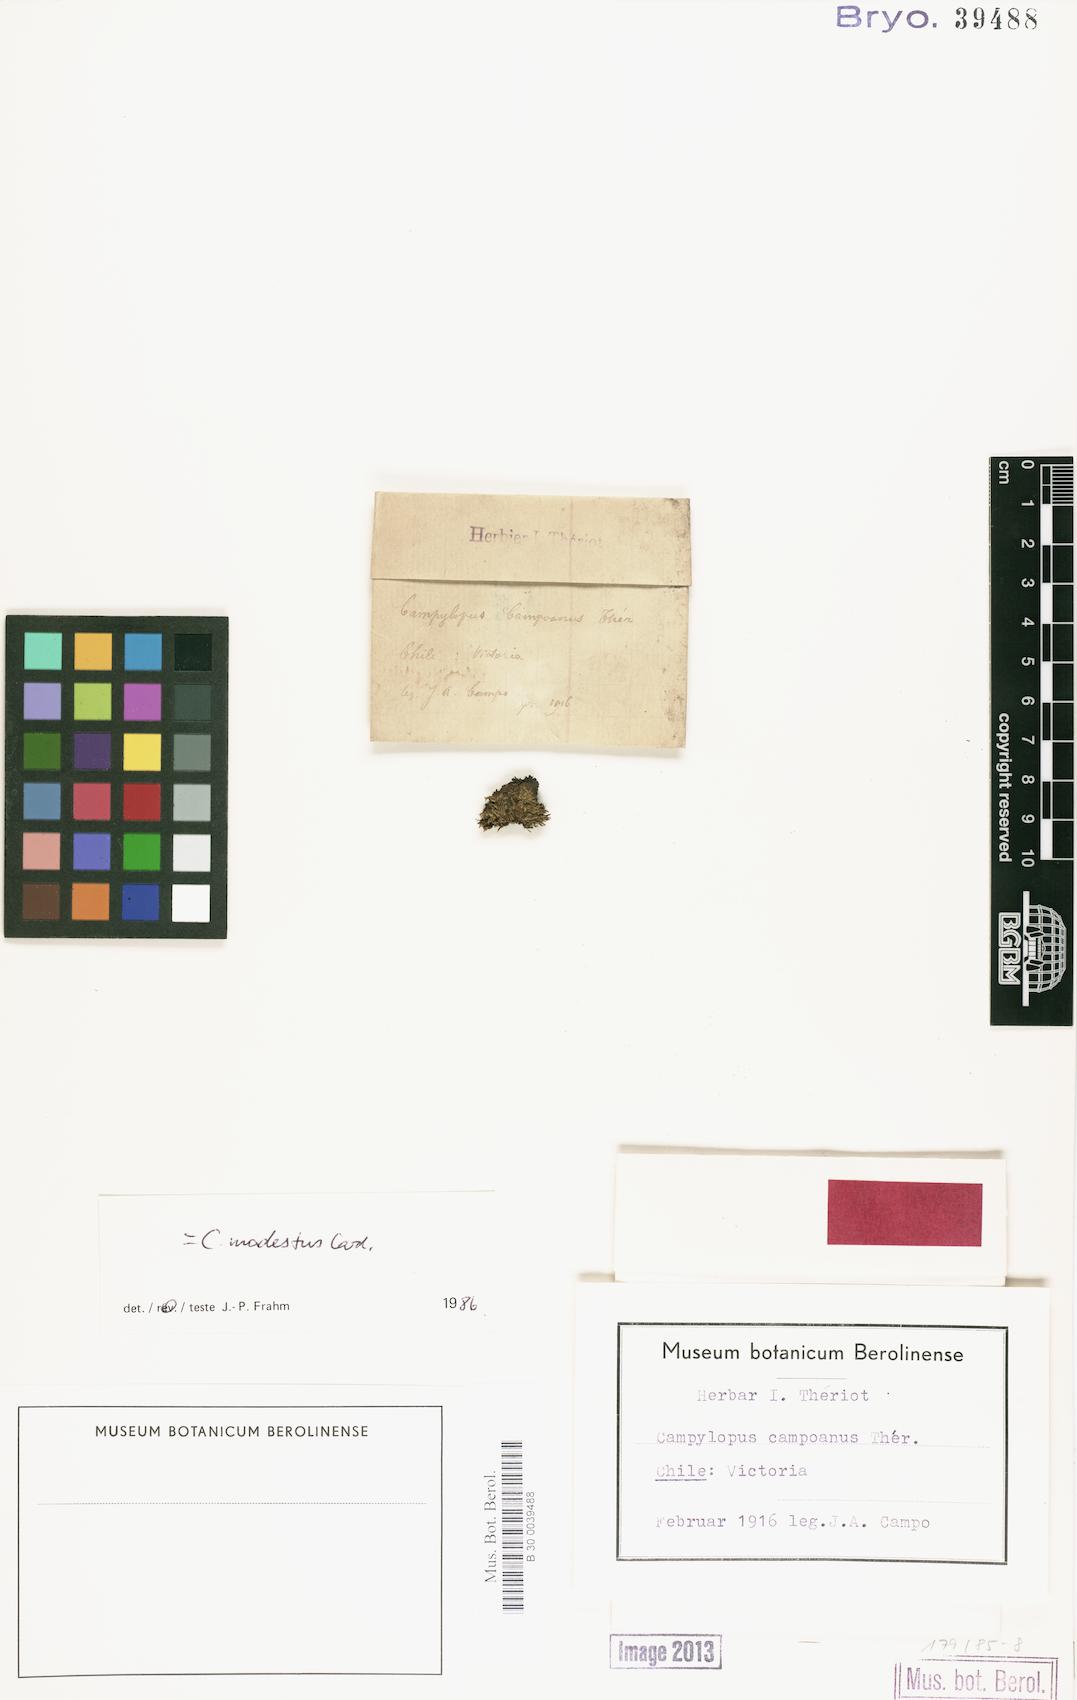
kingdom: Plantae
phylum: Bryophyta
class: Bryopsida
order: Dicranales
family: Leucobryaceae
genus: Campylopus
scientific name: Campylopus modestus
